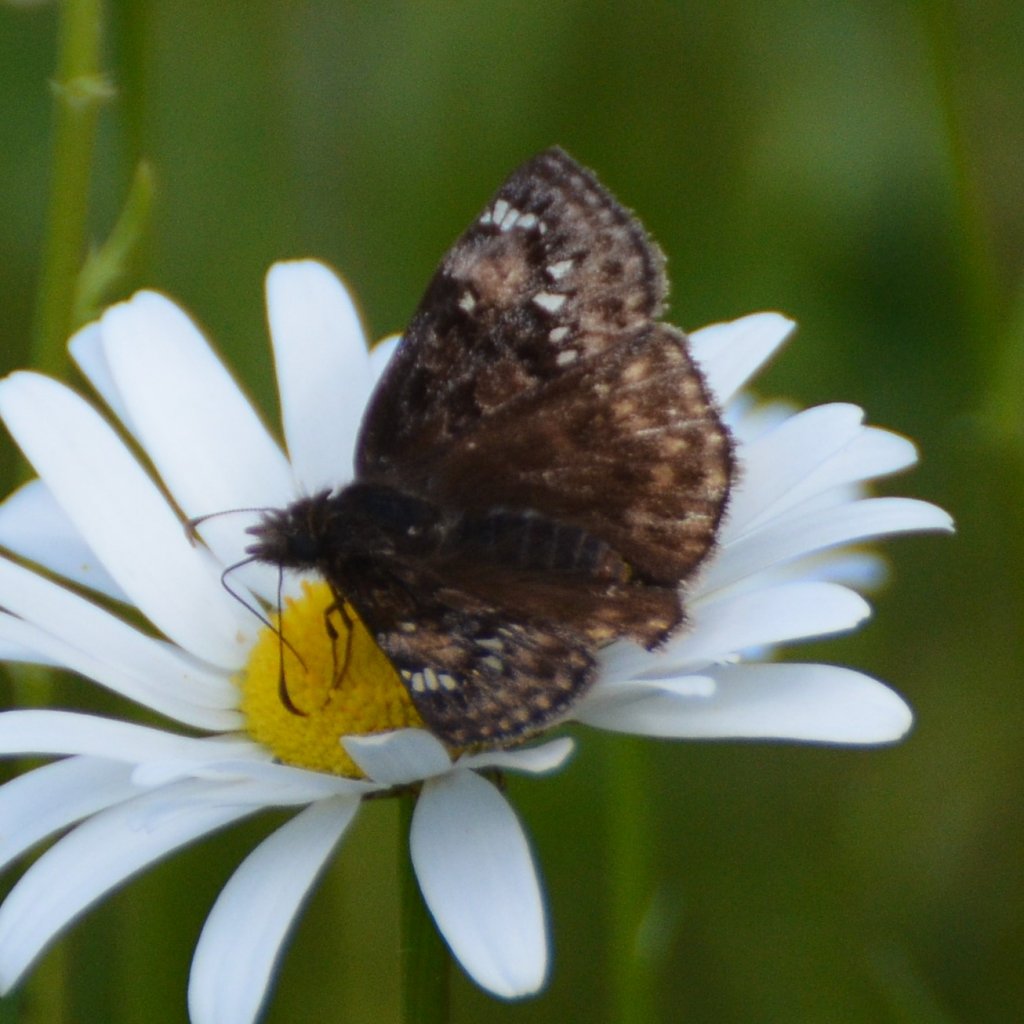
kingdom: Animalia
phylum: Arthropoda
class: Insecta
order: Lepidoptera
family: Hesperiidae
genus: Gesta
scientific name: Gesta
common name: Juvenal's Duskywing
